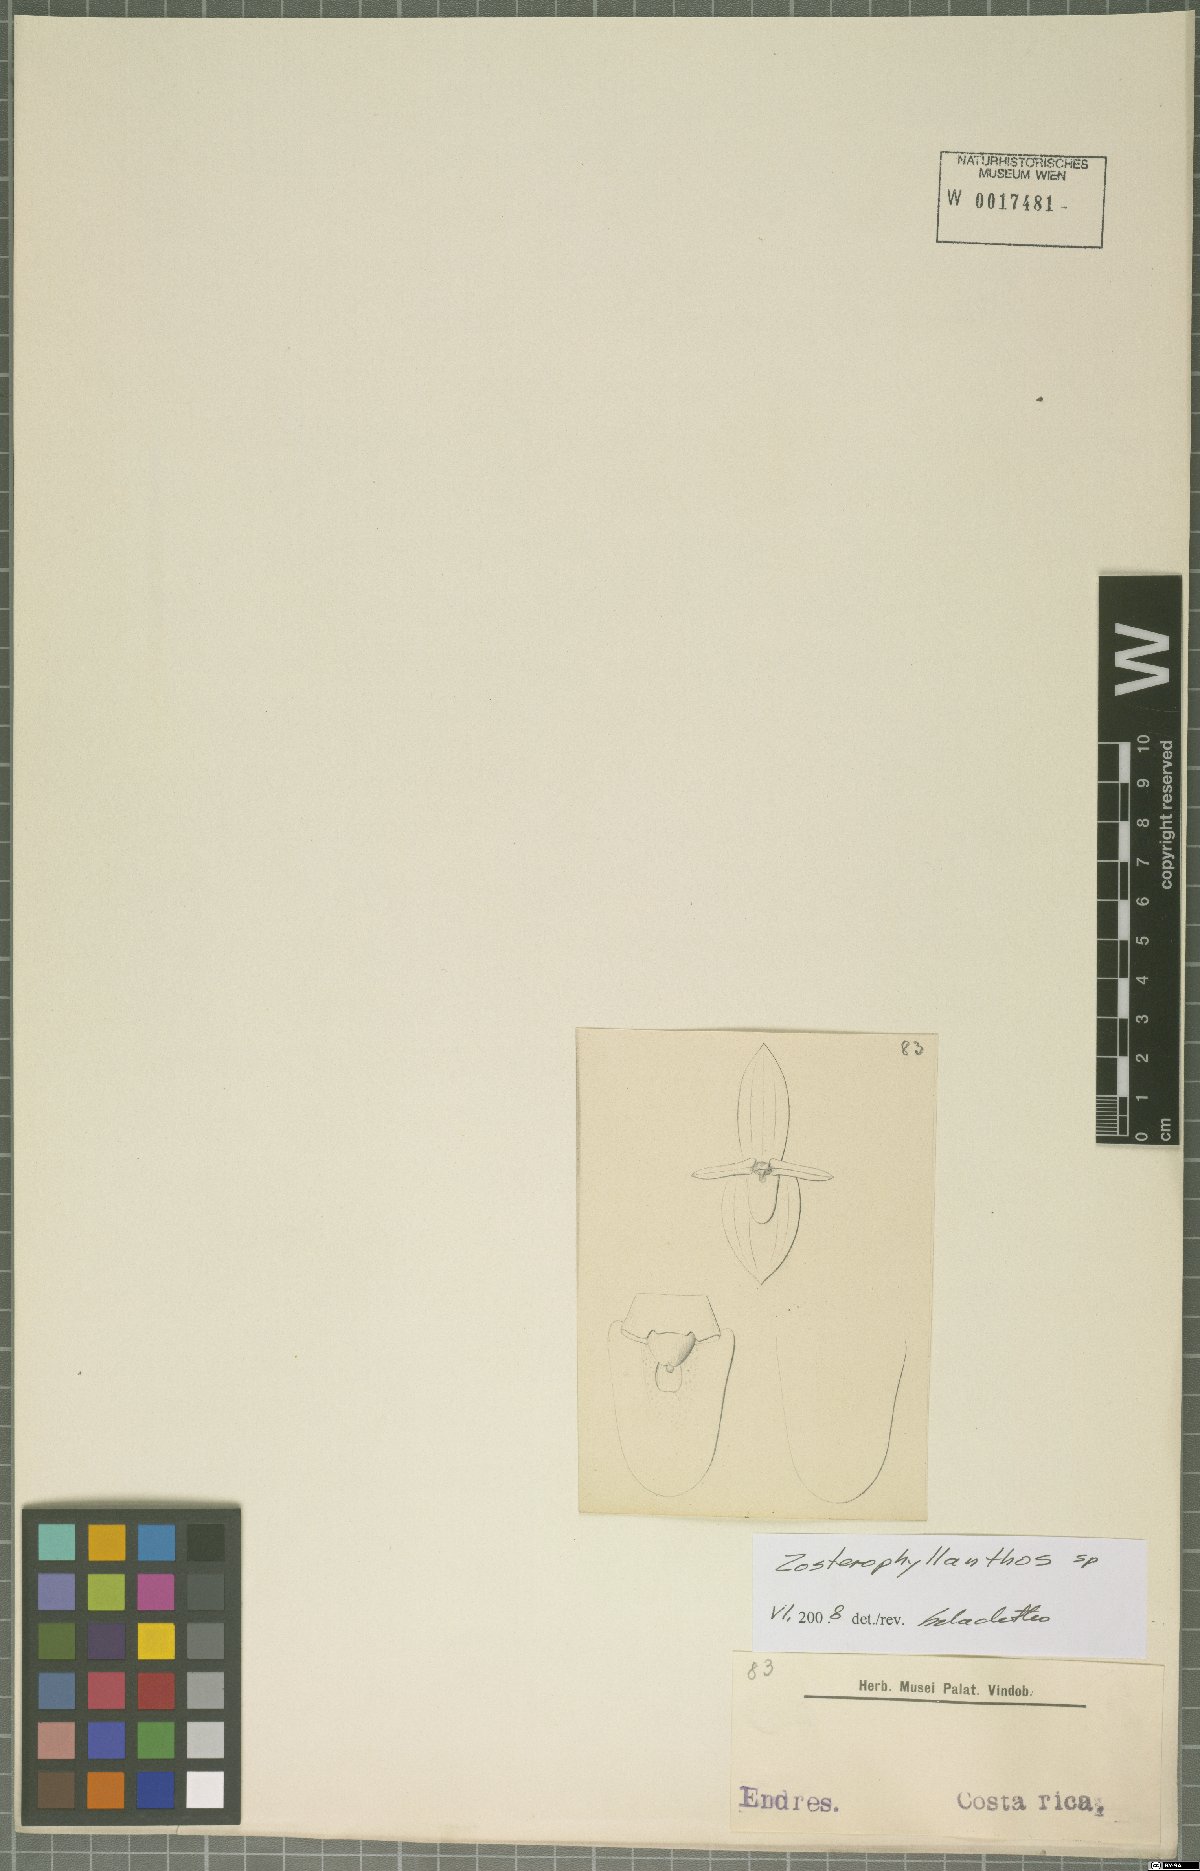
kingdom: Plantae
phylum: Tracheophyta
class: Liliopsida
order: Asparagales
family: Orchidaceae
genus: Pleurothallis
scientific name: Pleurothallis
